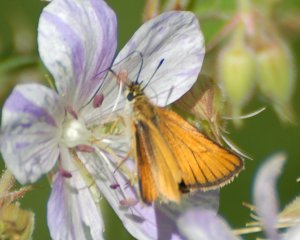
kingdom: Animalia
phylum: Arthropoda
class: Insecta
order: Lepidoptera
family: Hesperiidae
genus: Thymelicus
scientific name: Thymelicus lineola
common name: European Skipper
